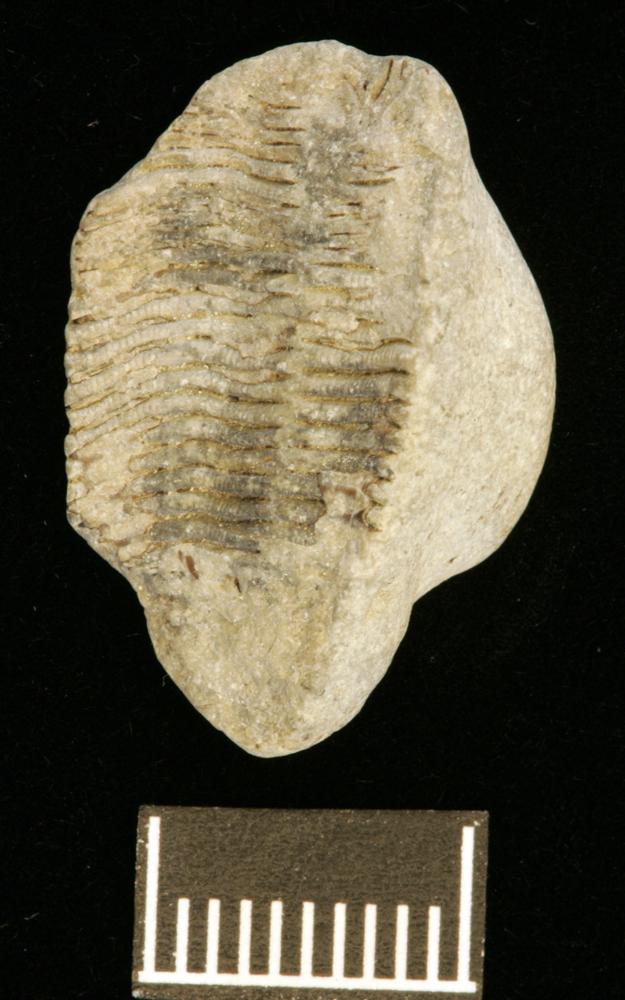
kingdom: Animalia
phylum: Cnidaria
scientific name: Cnidaria
